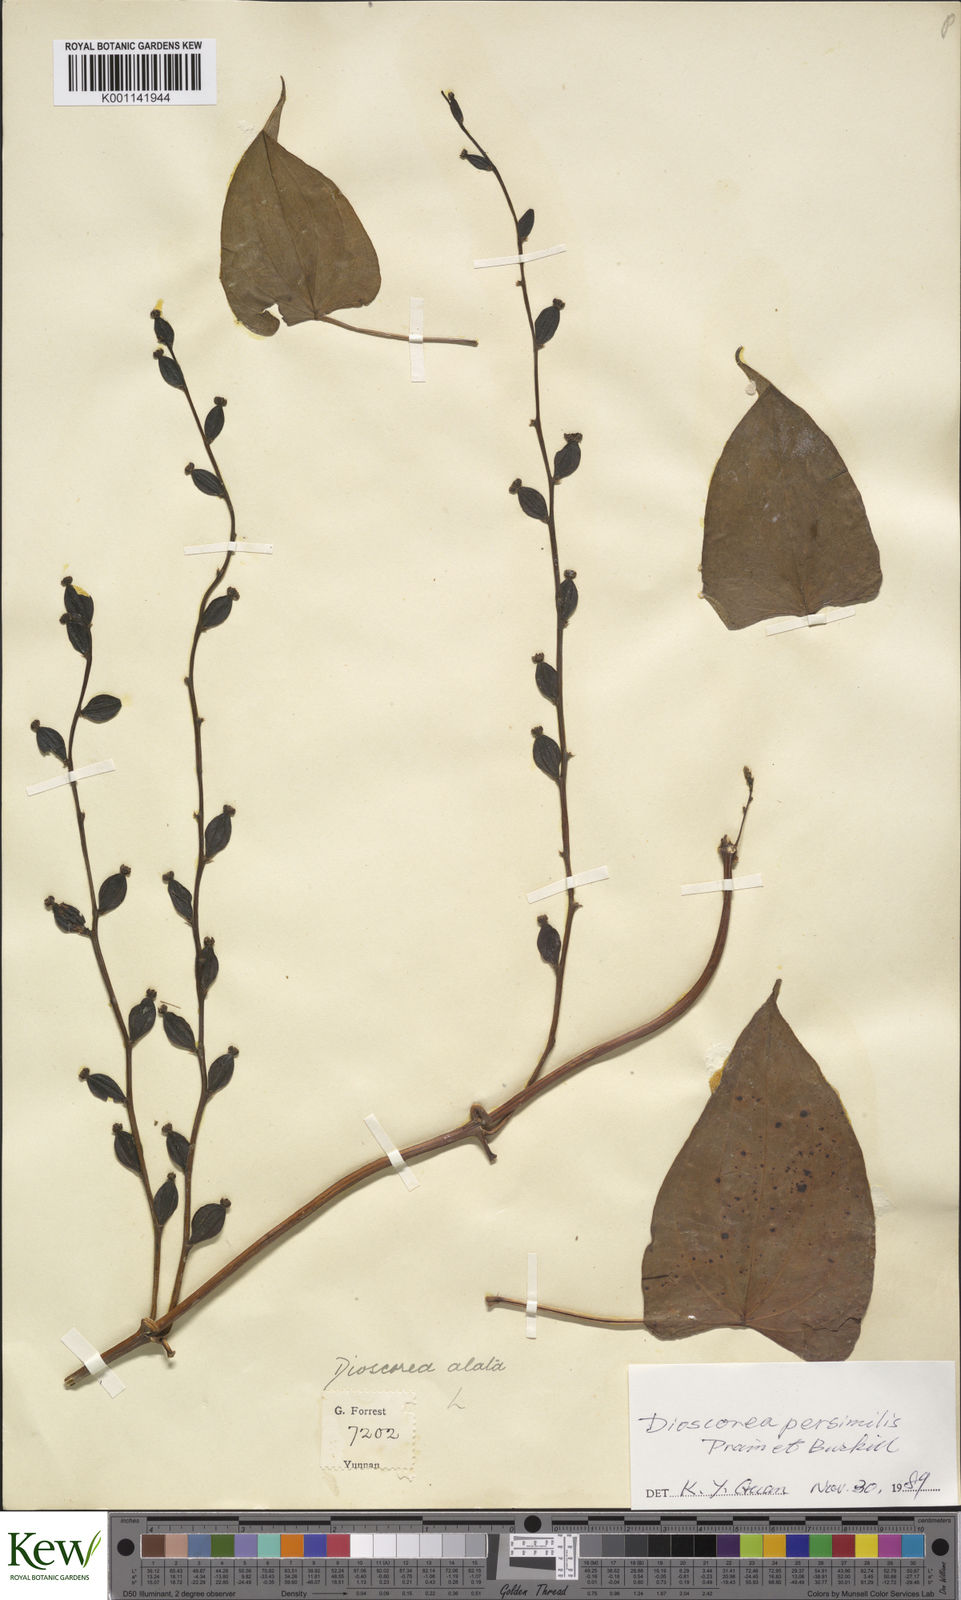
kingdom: Plantae
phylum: Tracheophyta
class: Liliopsida
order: Dioscoreales
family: Dioscoreaceae
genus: Dioscorea
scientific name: Dioscorea hamiltonii
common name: Mountain yam
